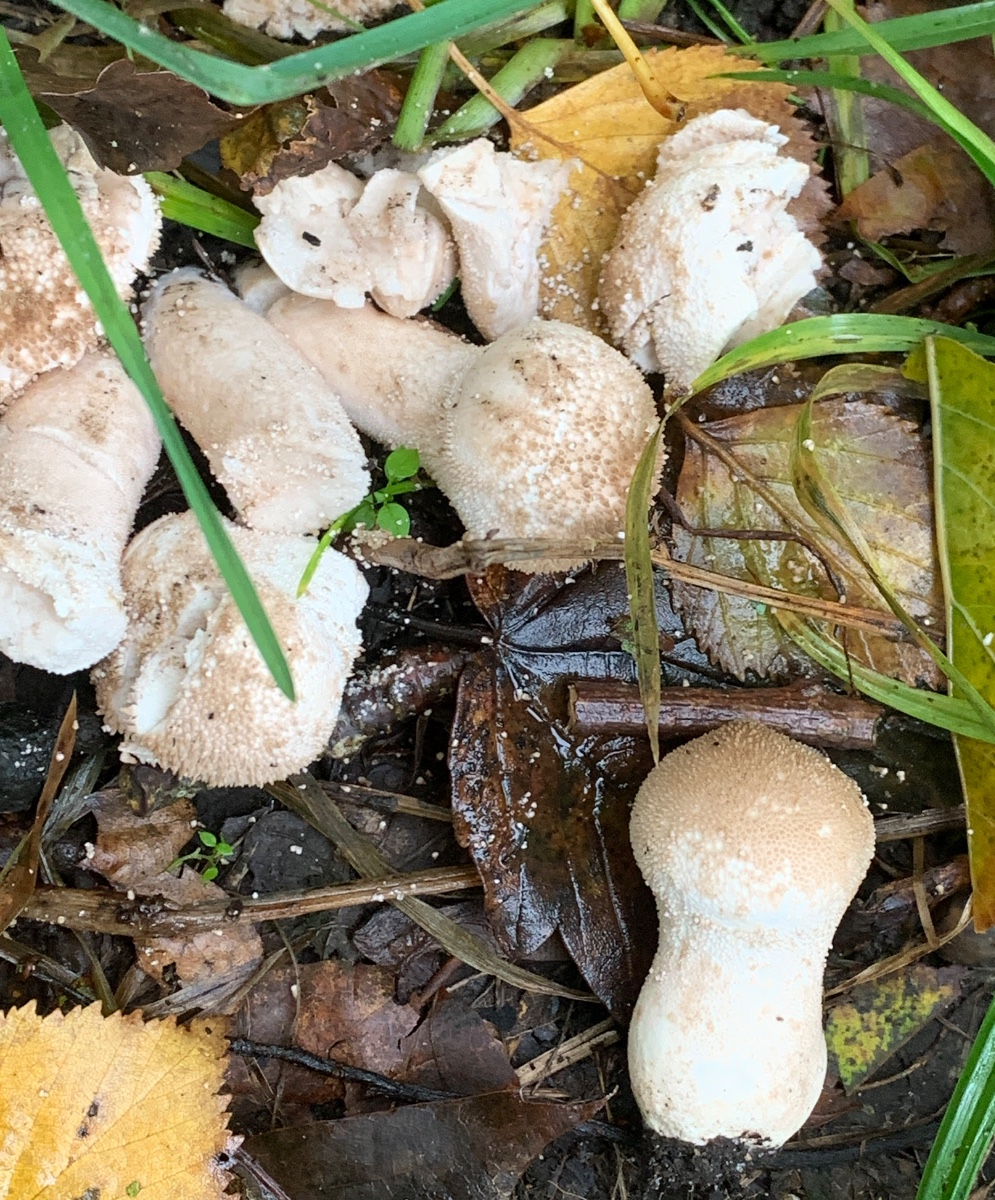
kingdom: Fungi
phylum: Basidiomycota
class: Agaricomycetes
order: Agaricales
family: Lycoperdaceae
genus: Lycoperdon
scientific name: Lycoperdon perlatum
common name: krystal-støvbold
